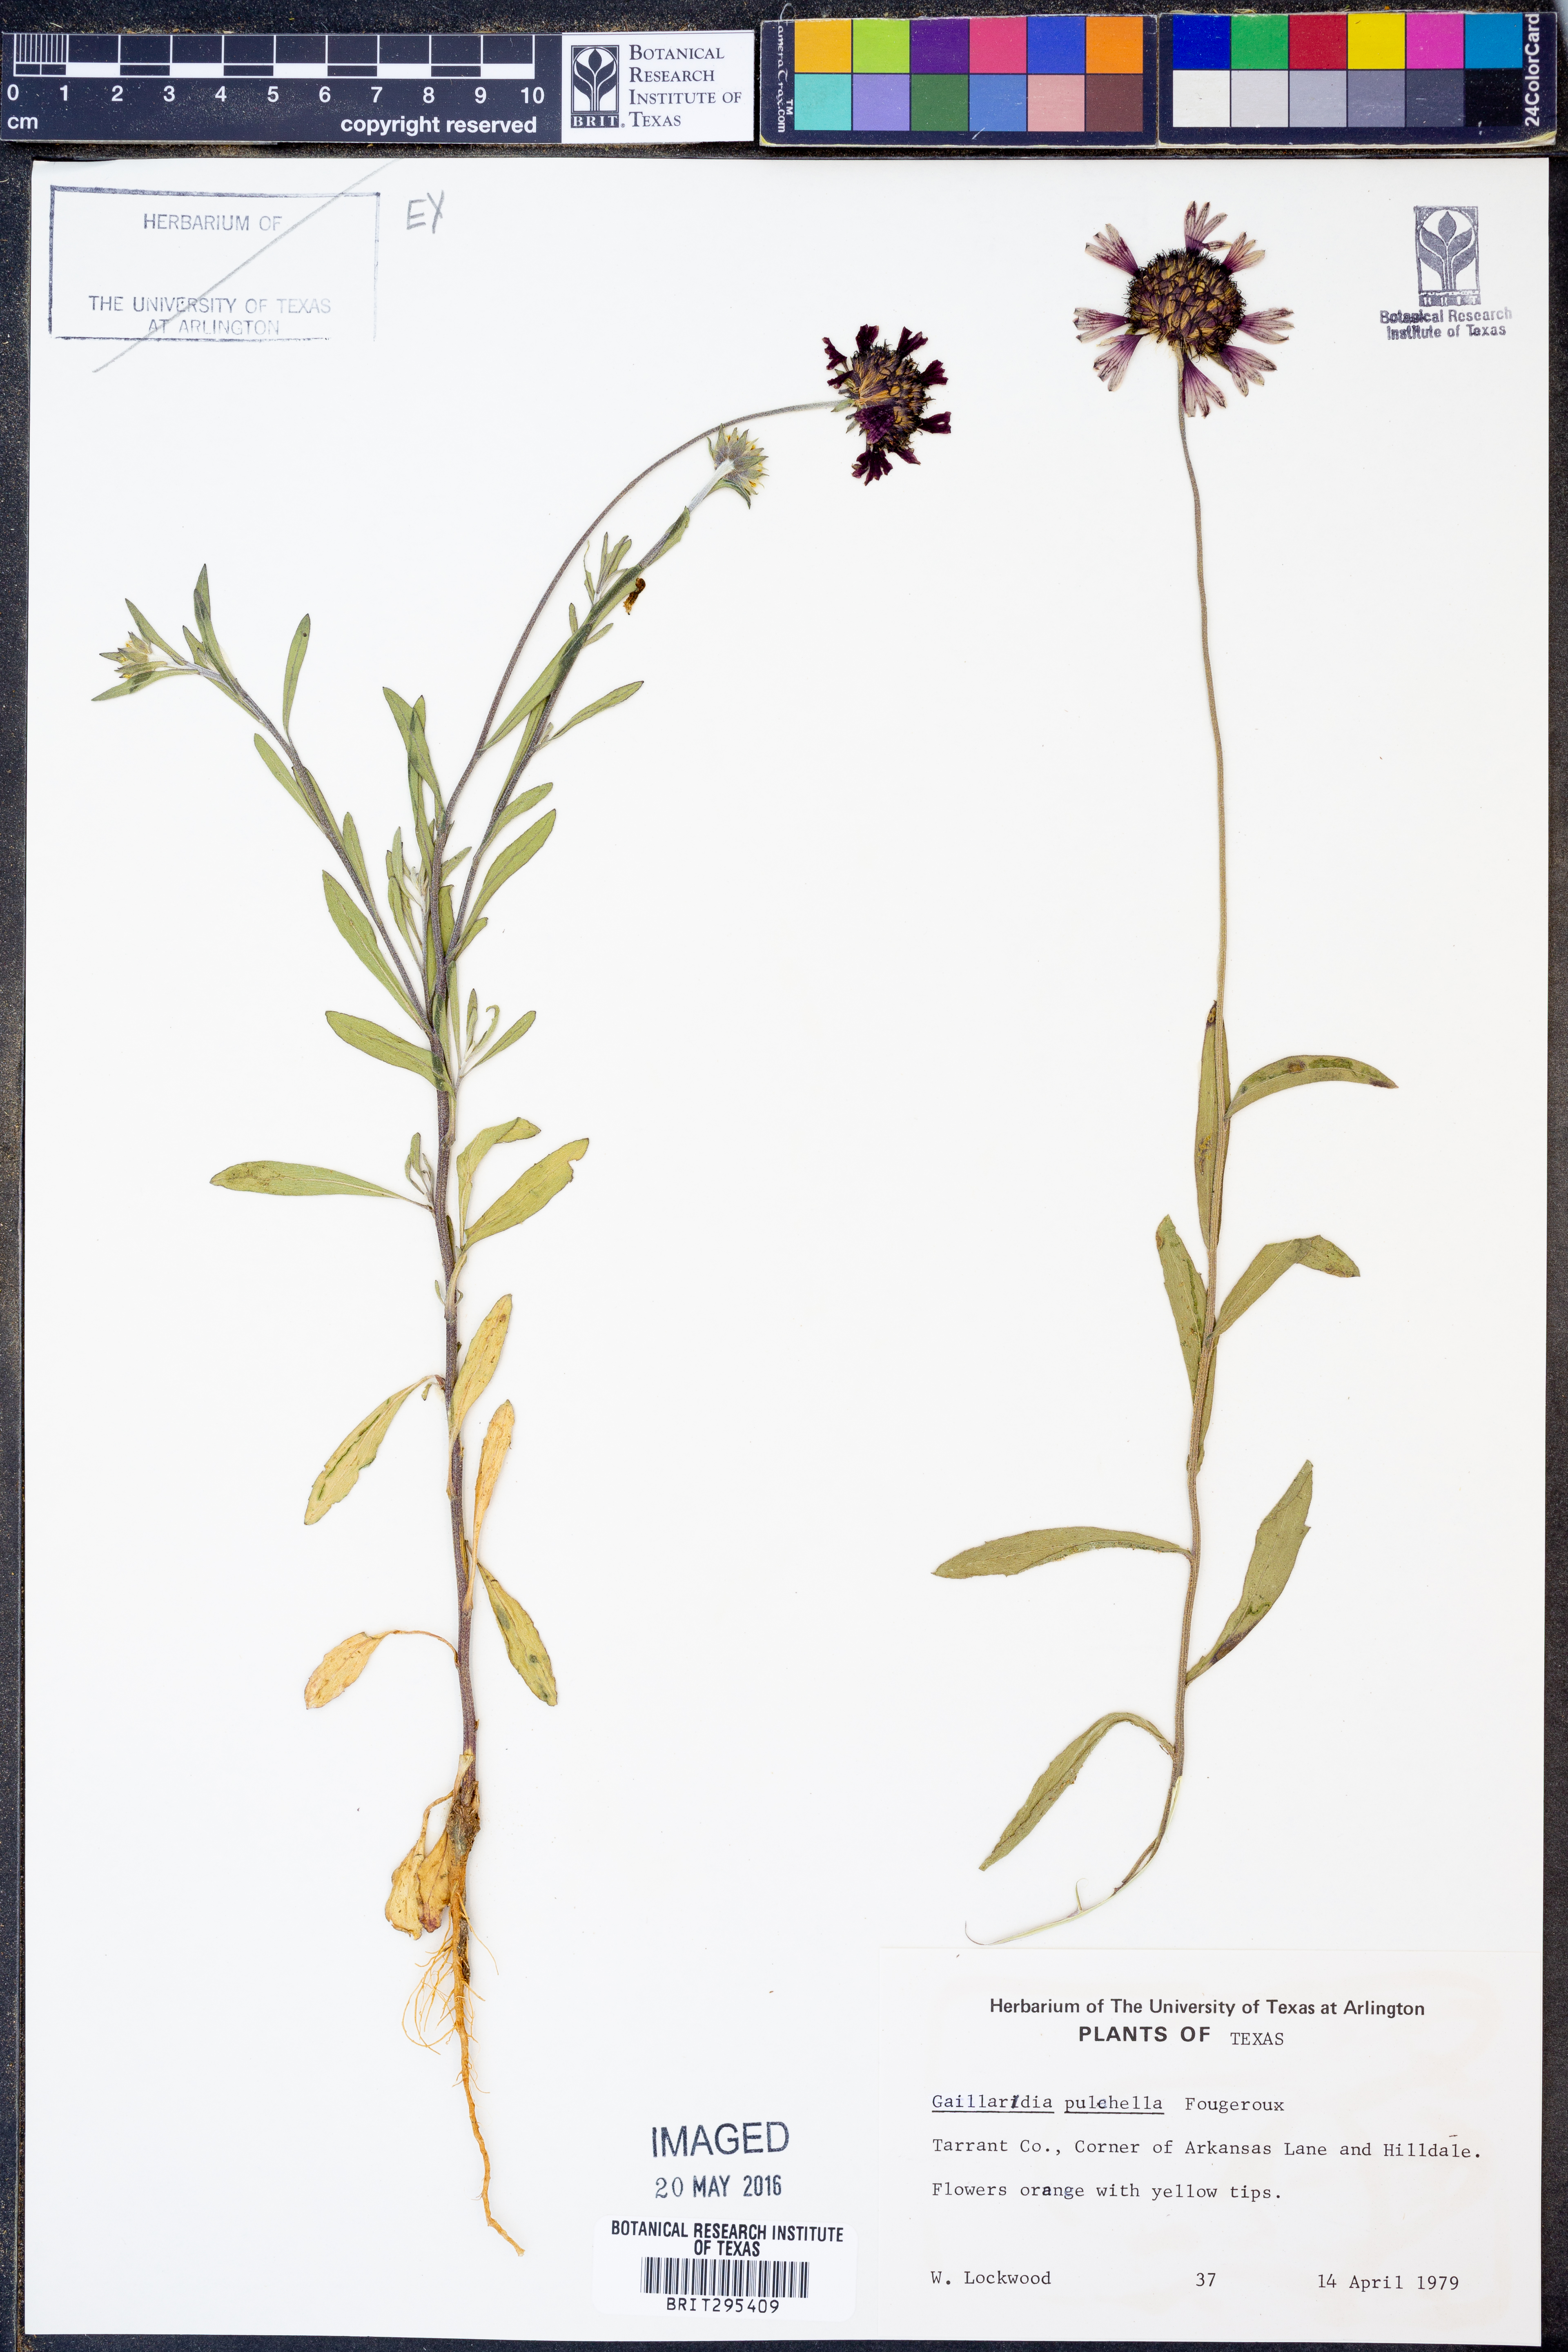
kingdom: Plantae
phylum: Tracheophyta
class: Magnoliopsida
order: Asterales
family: Asteraceae
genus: Gaillardia
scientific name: Gaillardia pulchella
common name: Firewheel
